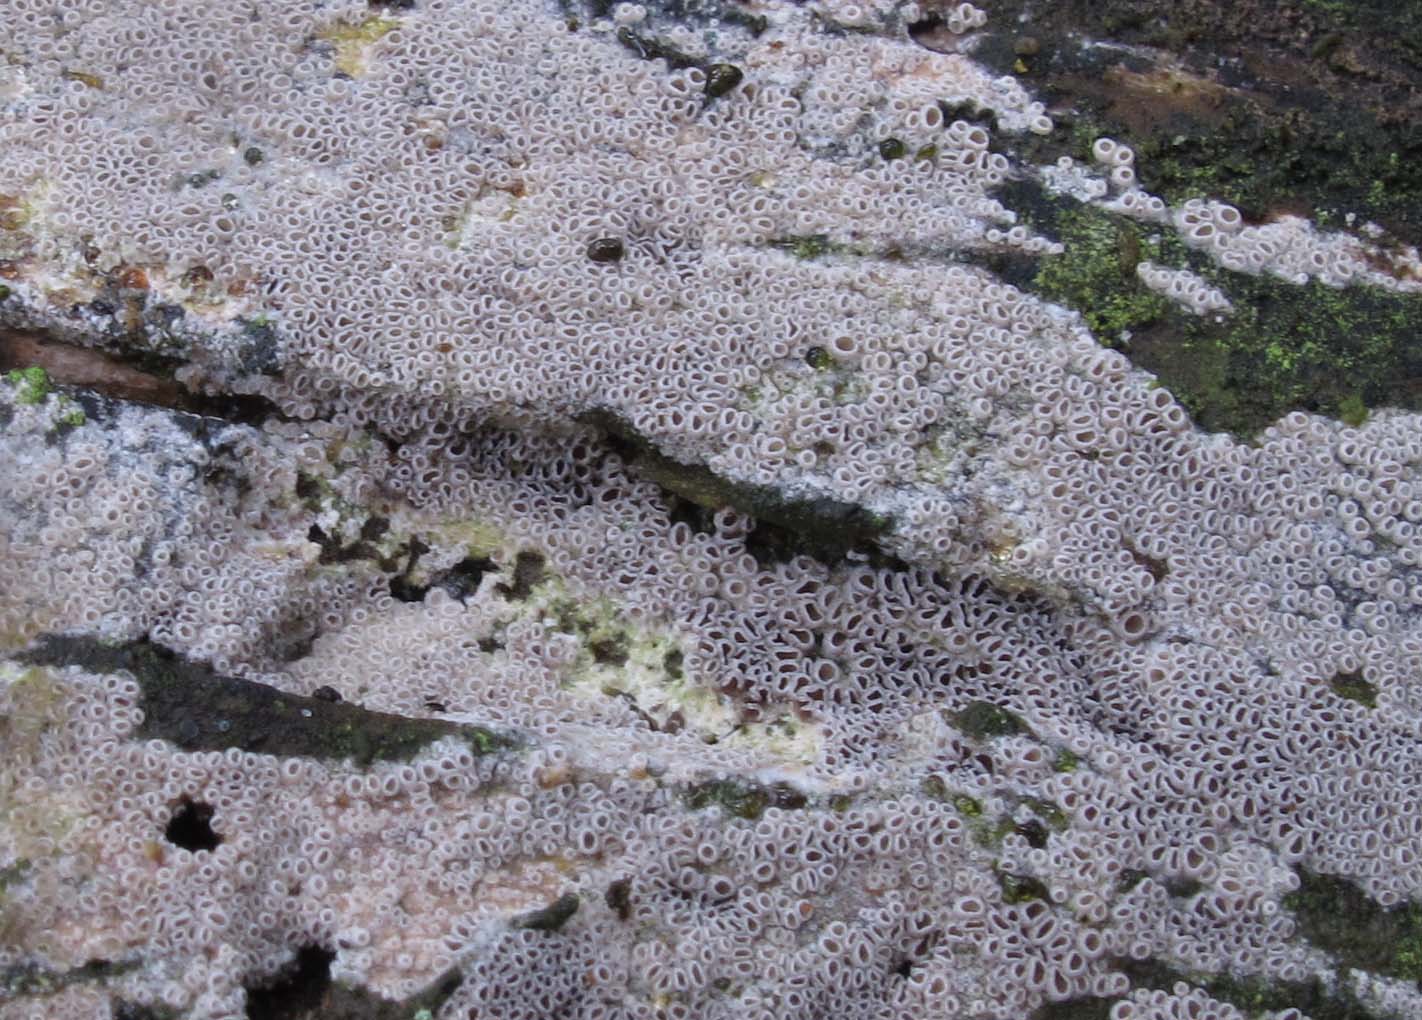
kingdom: Fungi
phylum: Basidiomycota
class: Agaricomycetes
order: Agaricales
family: Pleurotaceae
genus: Resupinatus
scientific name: Resupinatus poriaeformis
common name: tæpperør
